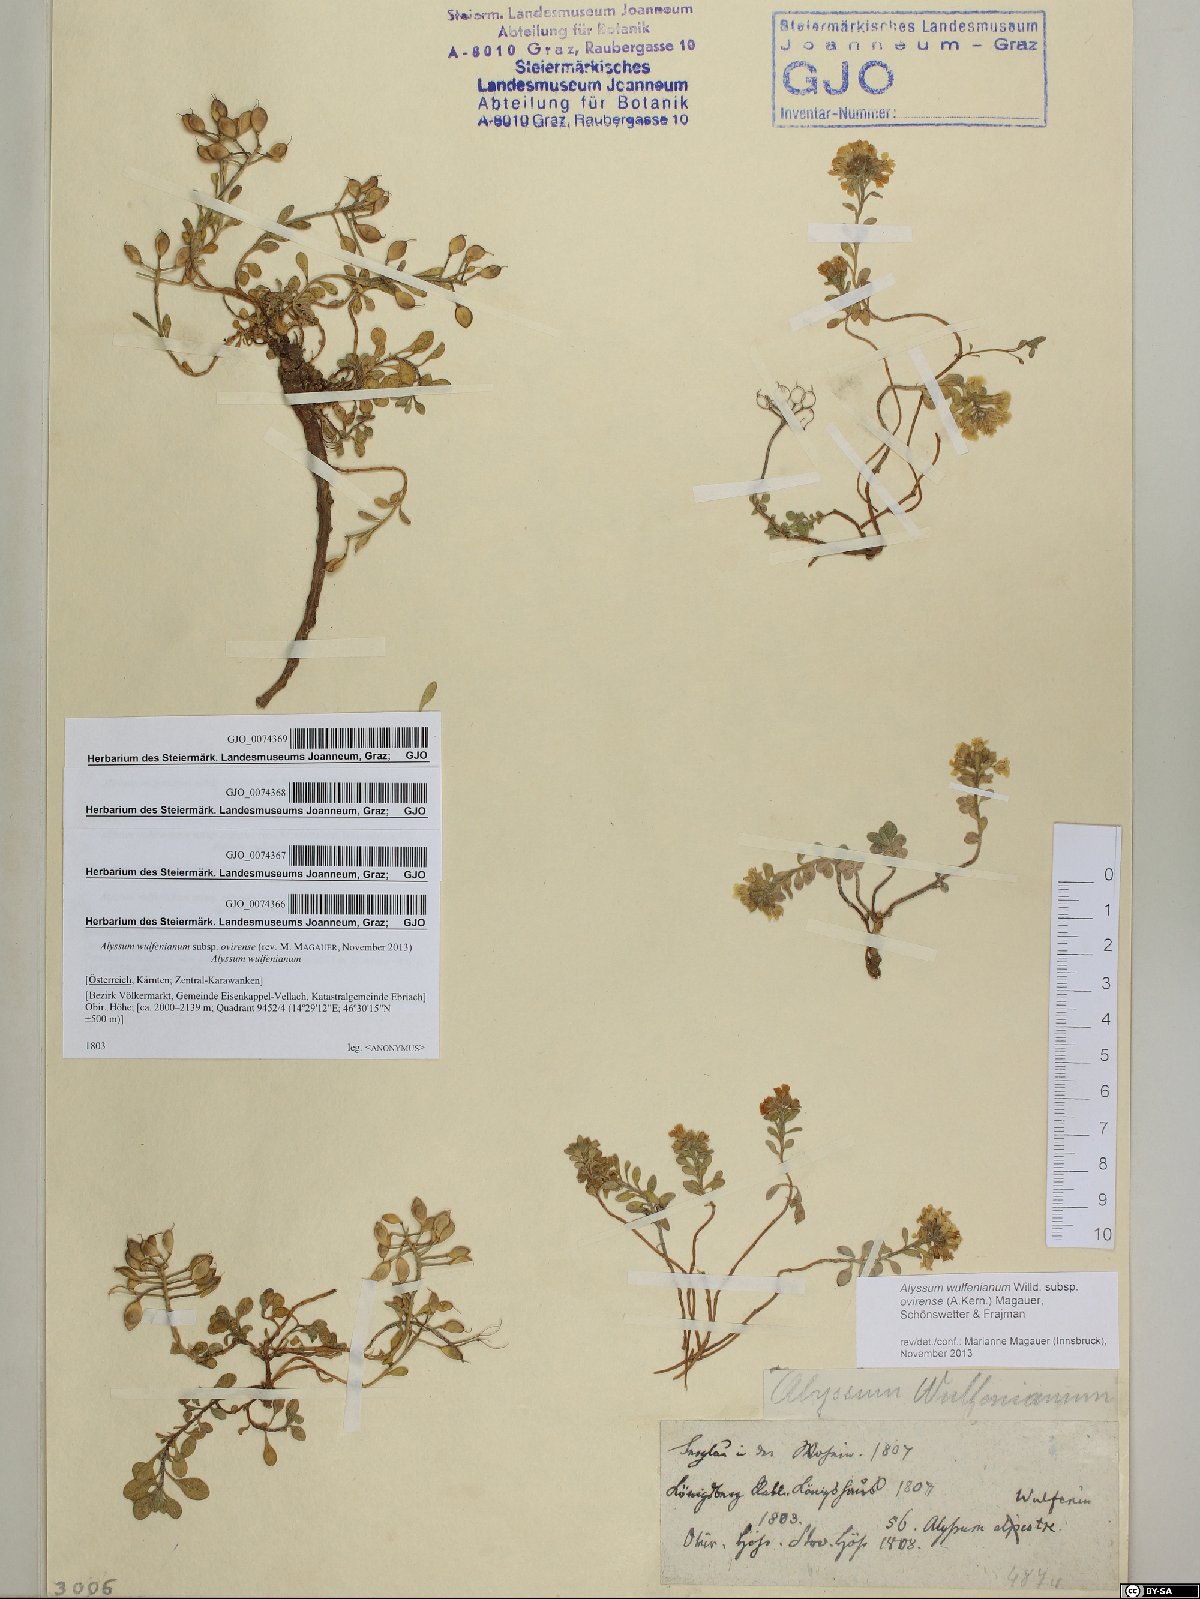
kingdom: Plantae
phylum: Tracheophyta
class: Magnoliopsida
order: Brassicales
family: Brassicaceae
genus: Alyssum
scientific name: Alyssum wulfenianum
